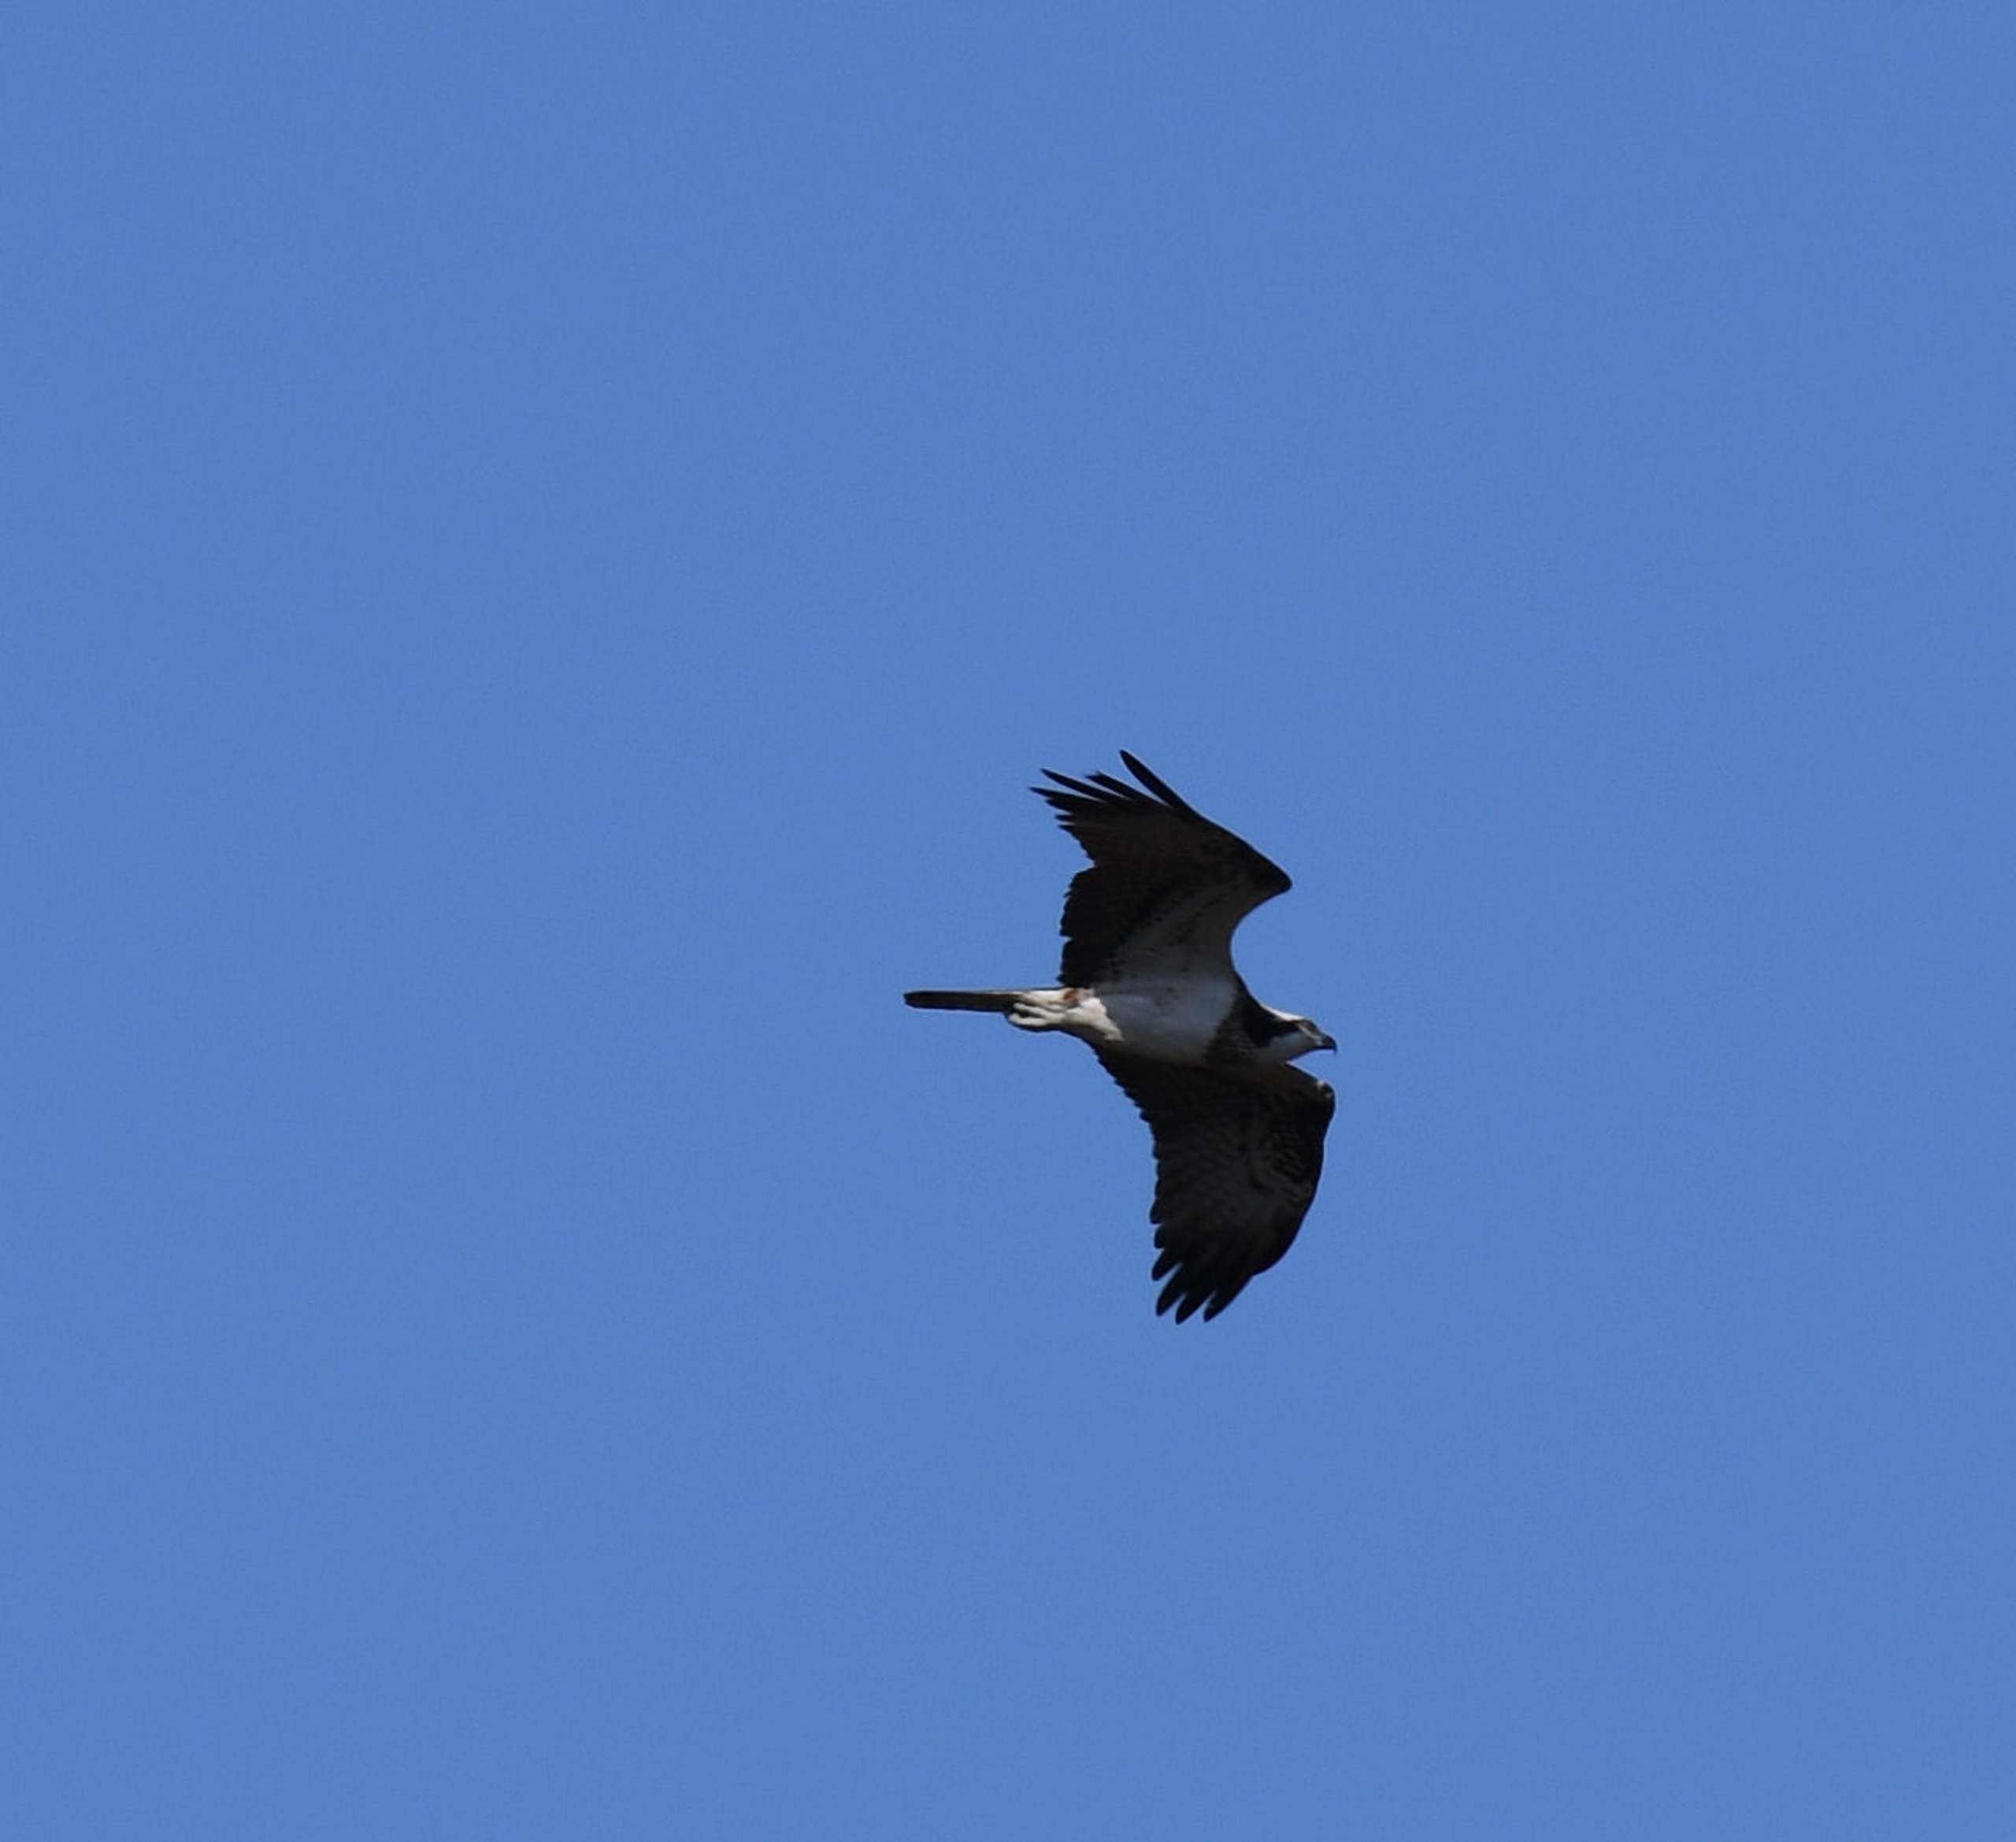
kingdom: Animalia
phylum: Chordata
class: Aves
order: Accipitriformes
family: Pandionidae
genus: Pandion
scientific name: Pandion haliaetus
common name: Fiskeørn
